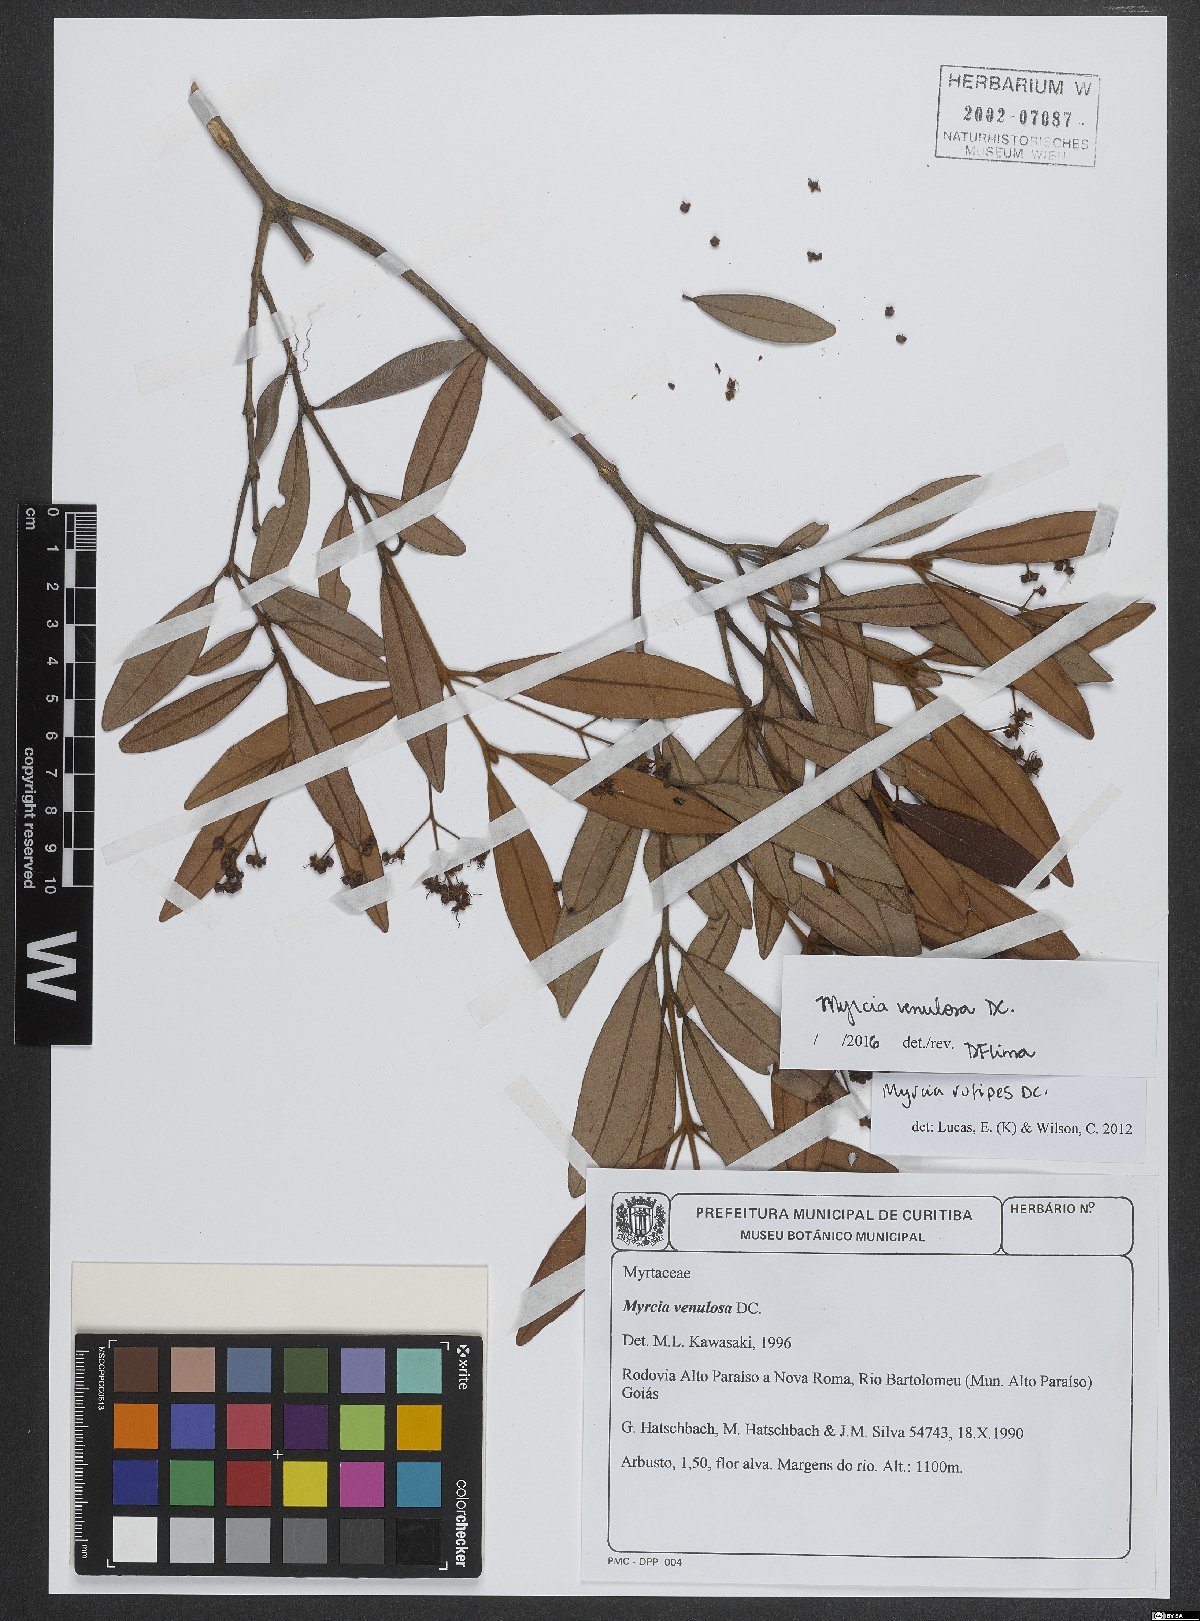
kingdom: Plantae
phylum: Tracheophyta
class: Magnoliopsida
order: Myrtales
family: Myrtaceae
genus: Myrcia
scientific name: Myrcia venulosa
